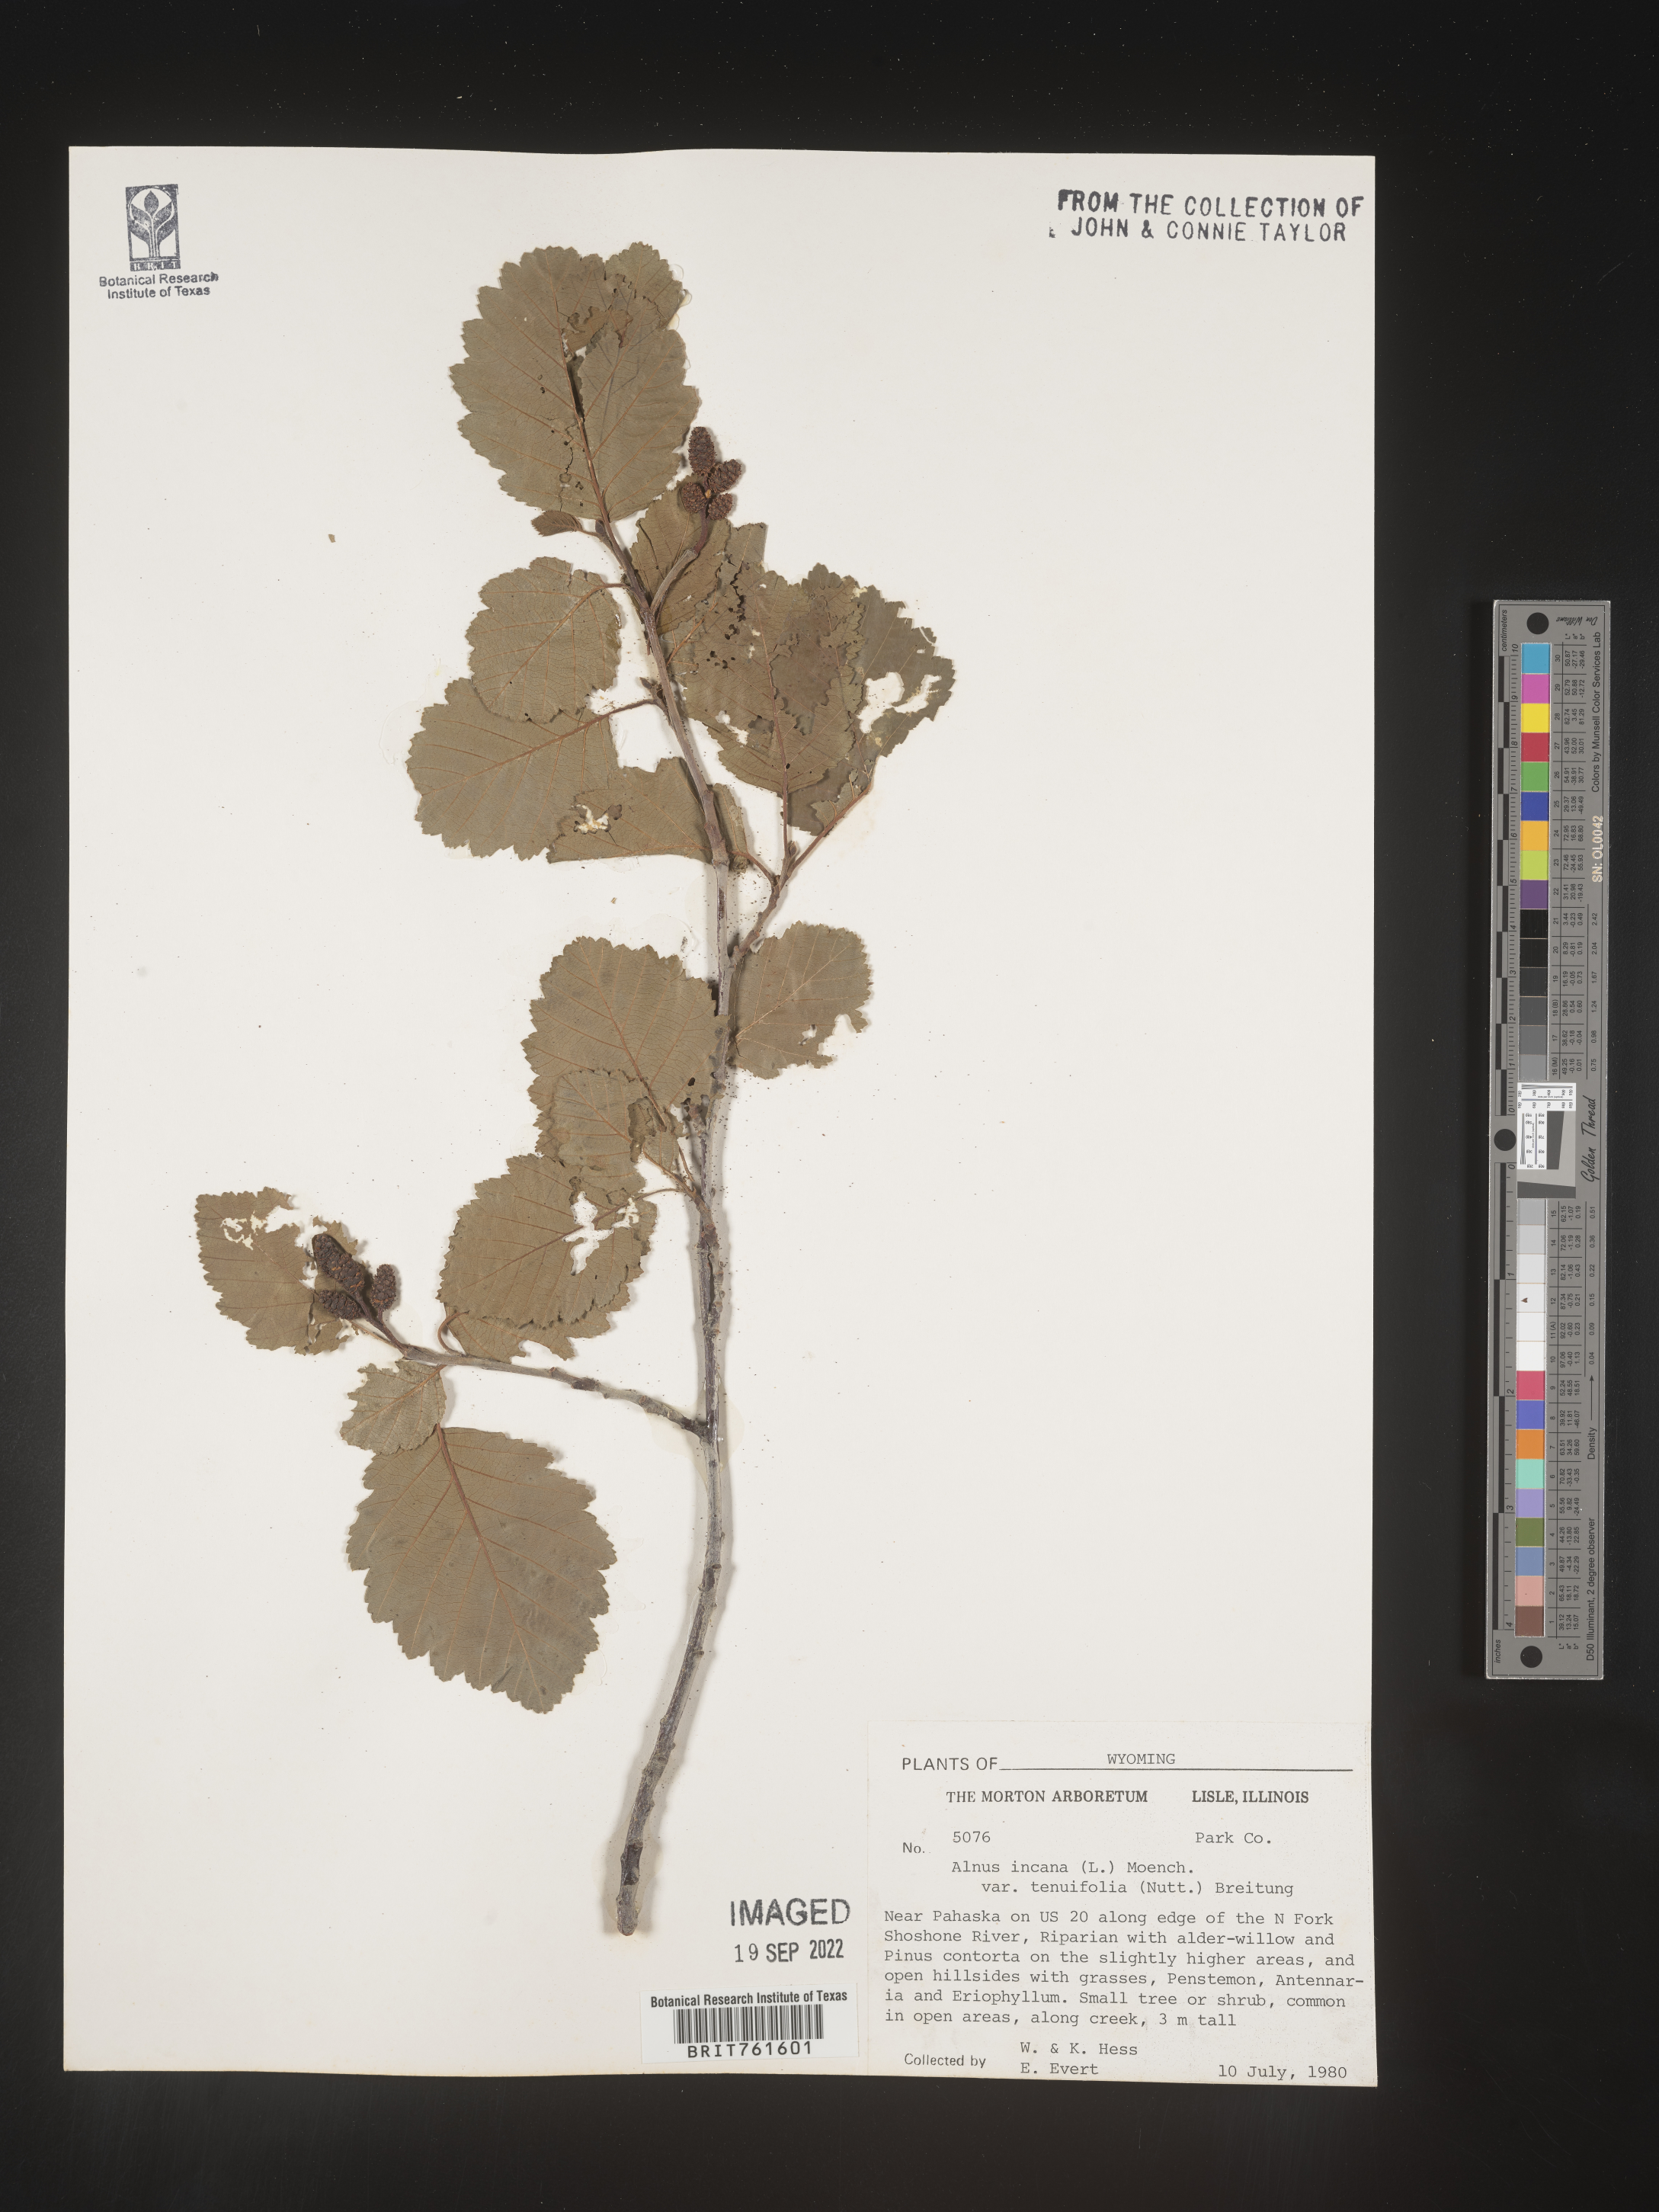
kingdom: Plantae
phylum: Tracheophyta
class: Magnoliopsida
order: Fagales
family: Betulaceae
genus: Alnus
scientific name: Alnus incana
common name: Grey alder
